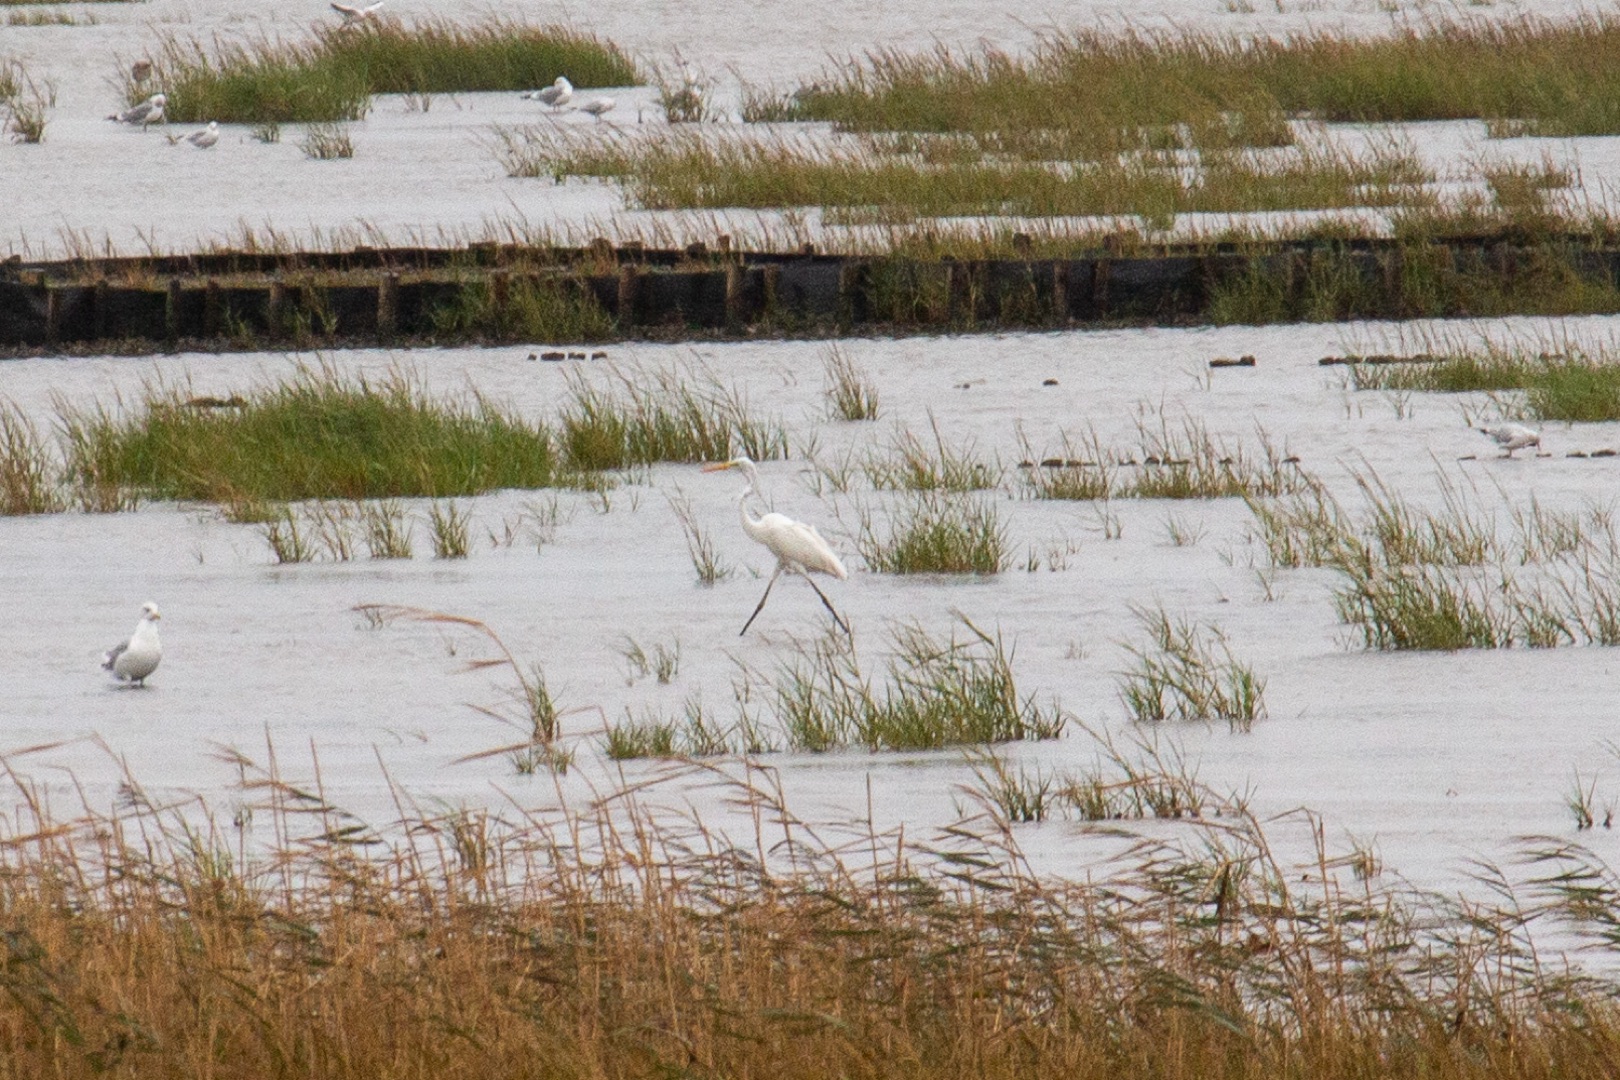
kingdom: Animalia
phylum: Chordata
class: Aves
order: Pelecaniformes
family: Ardeidae
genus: Ardea
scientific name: Ardea alba
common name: Sølvhejre
